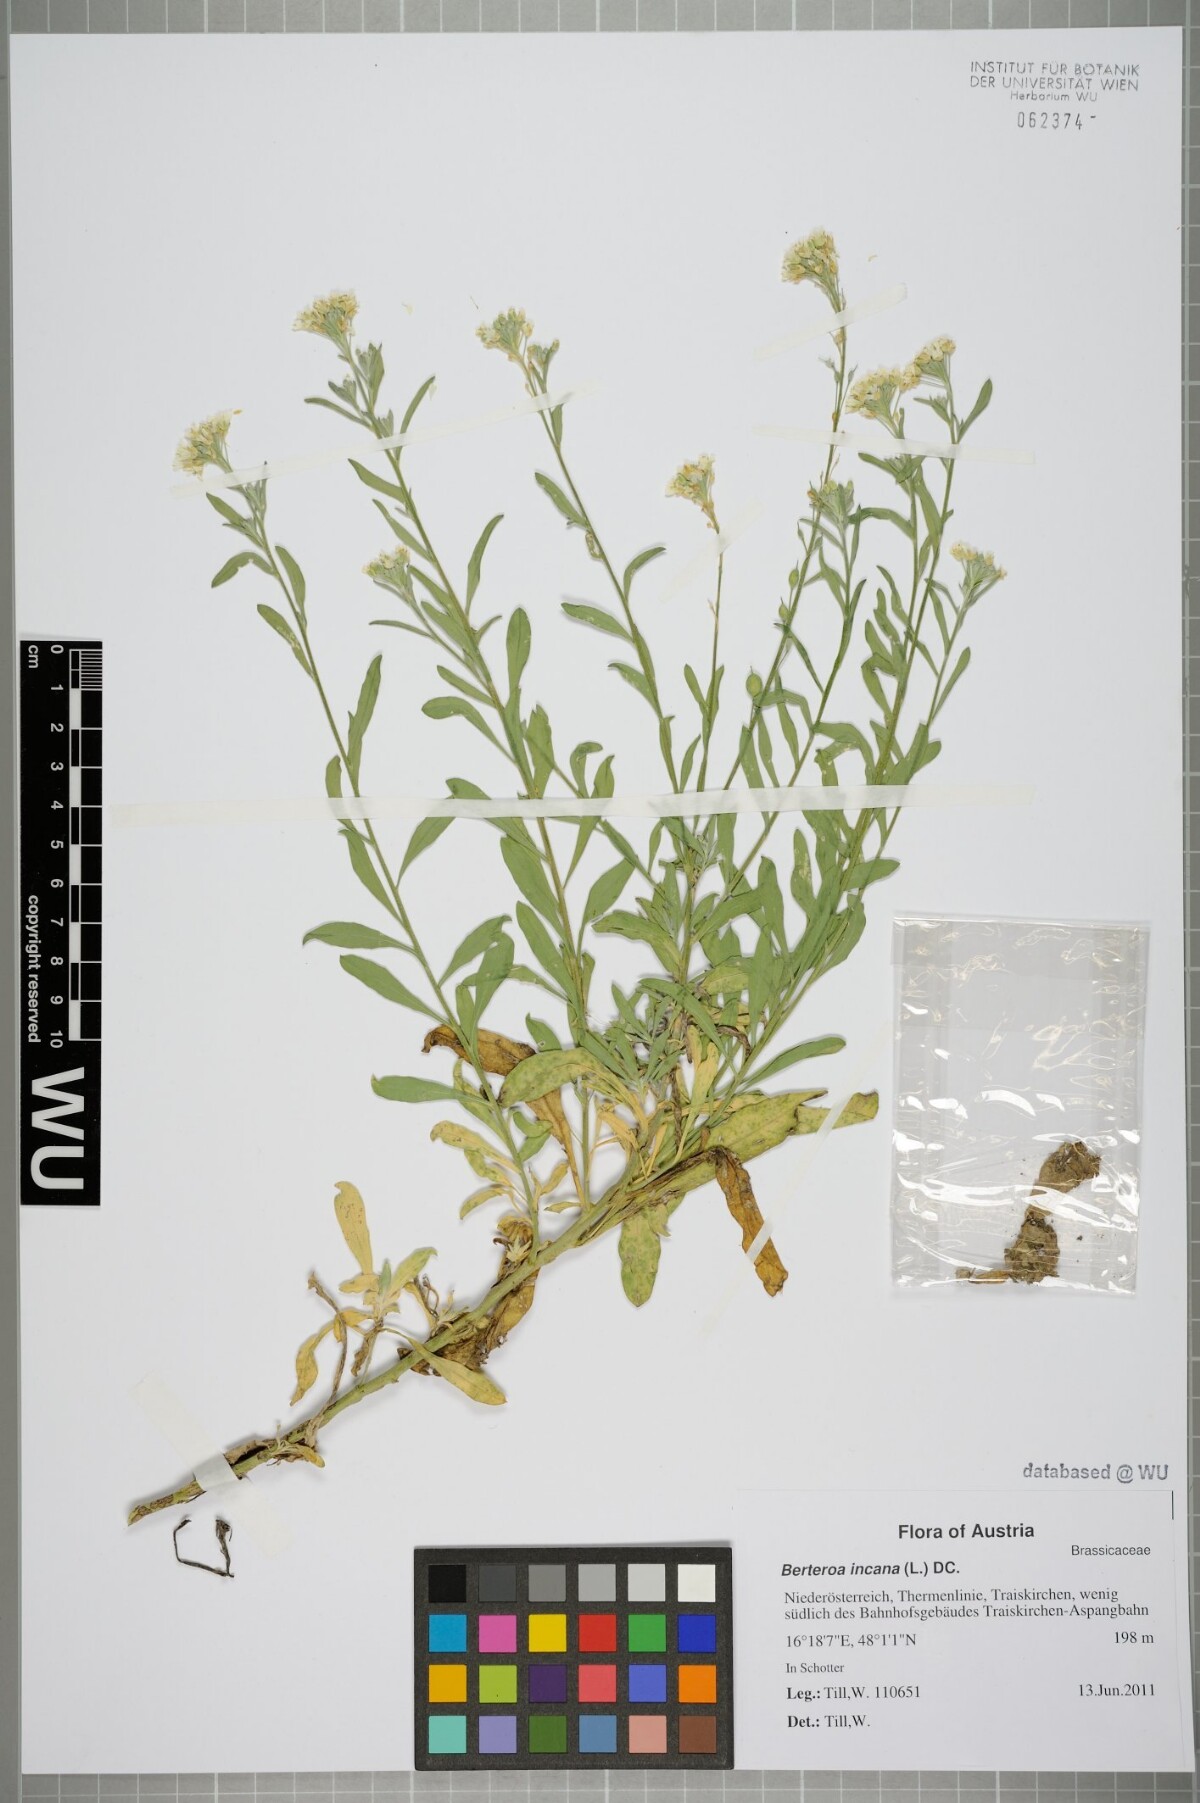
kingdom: Plantae
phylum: Tracheophyta
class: Magnoliopsida
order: Brassicales
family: Brassicaceae
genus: Berteroa
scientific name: Berteroa incana
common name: Hoary alison
